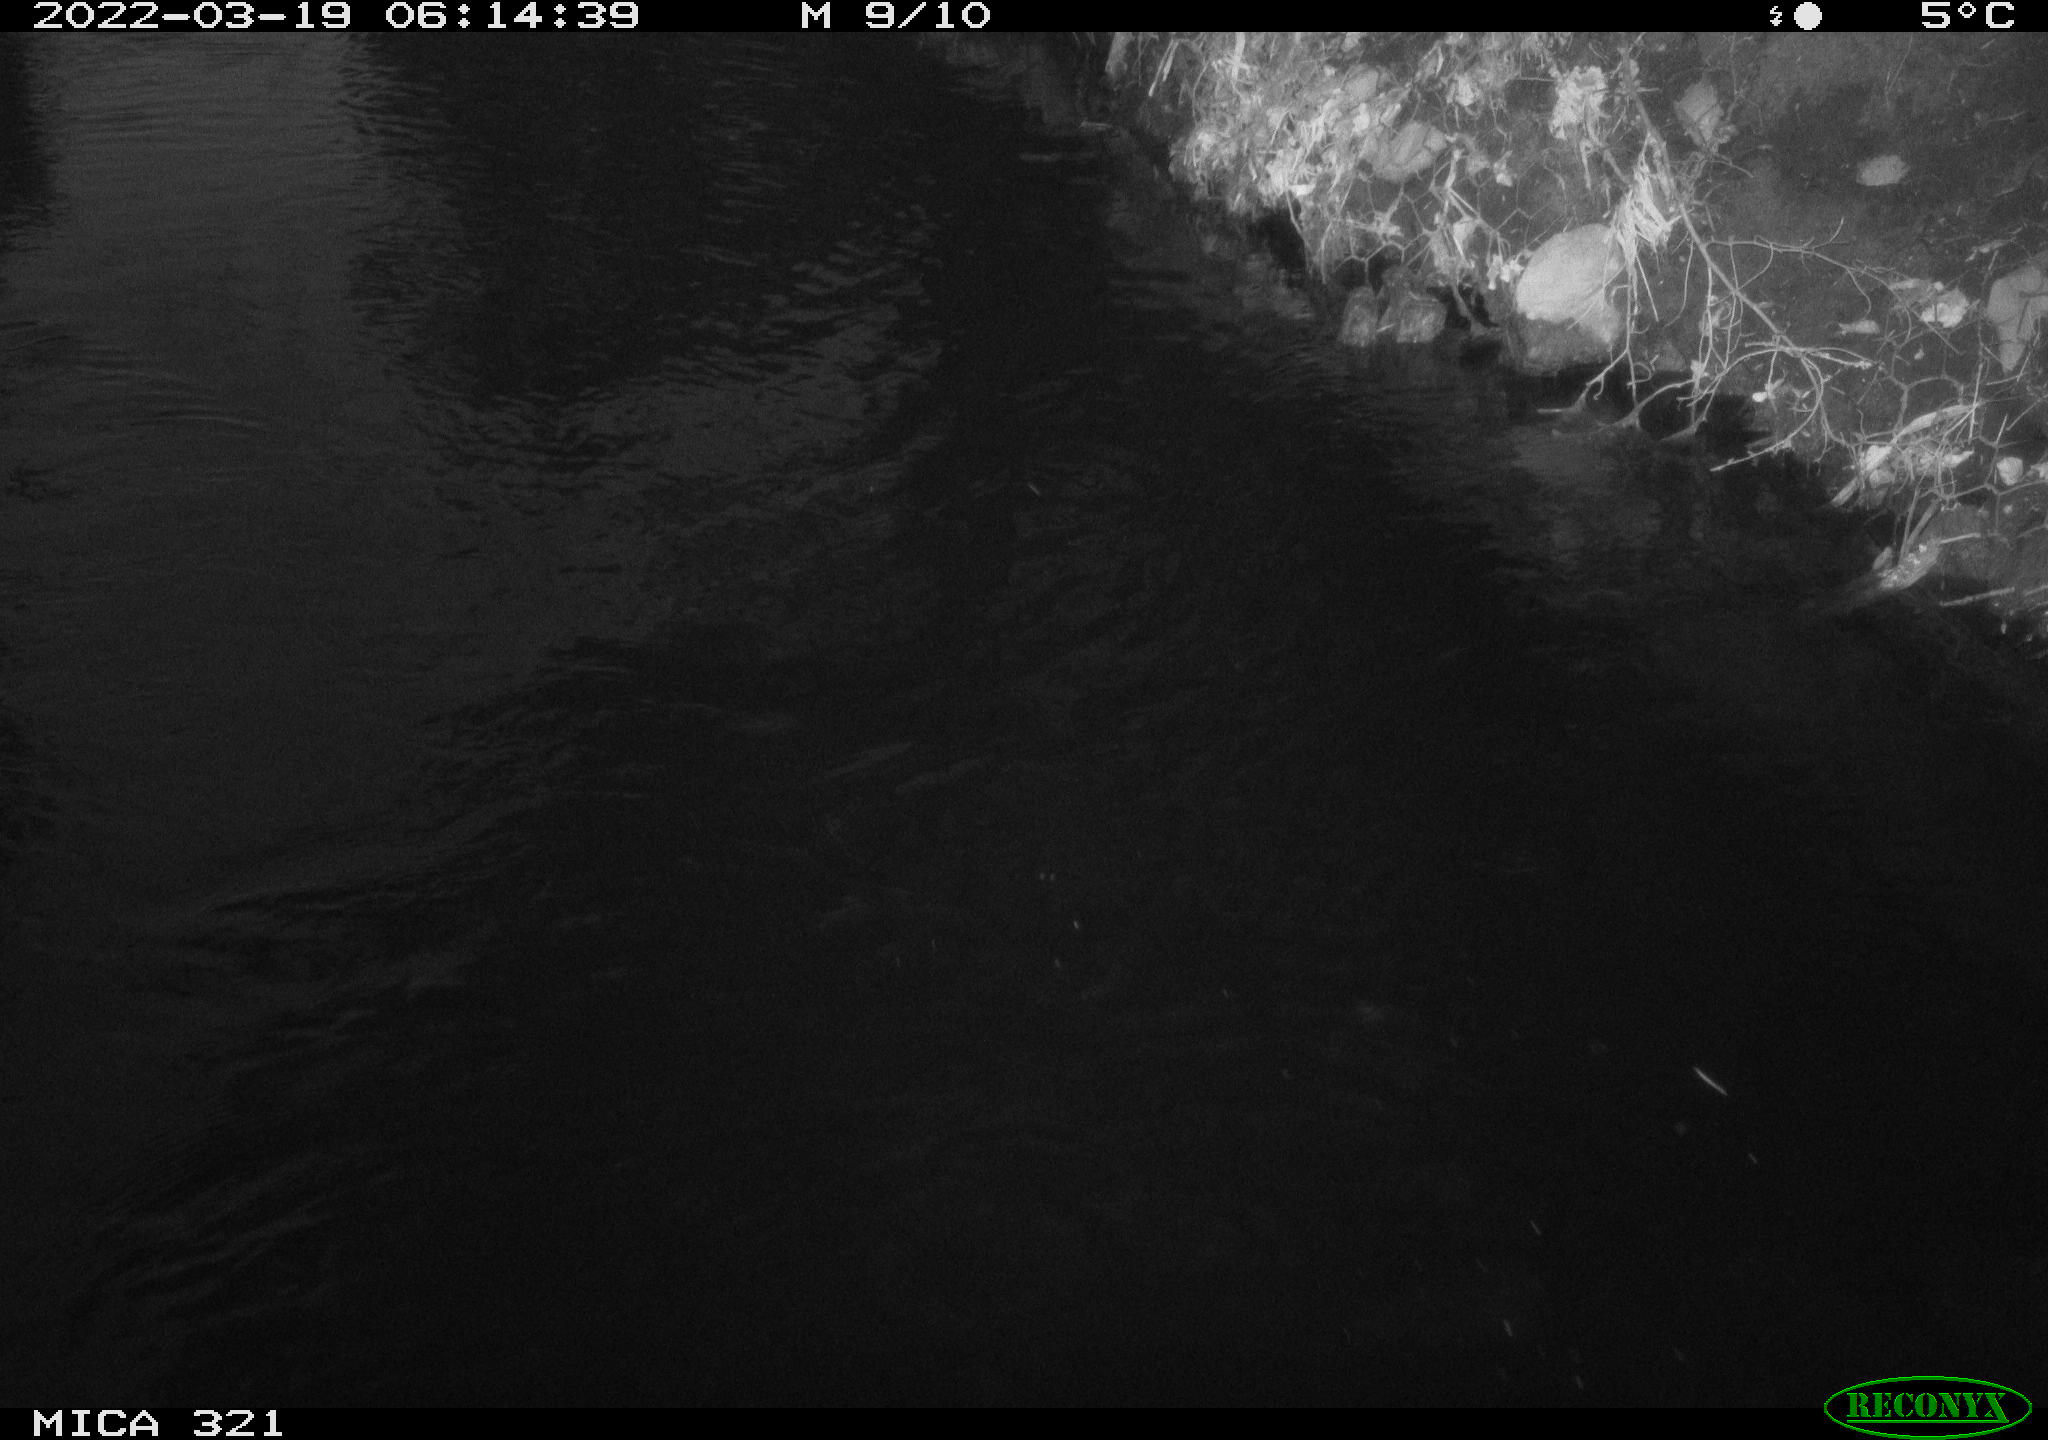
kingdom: Animalia
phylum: Chordata
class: Aves
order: Anseriformes
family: Anatidae
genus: Anas
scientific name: Anas platyrhynchos
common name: Mallard
